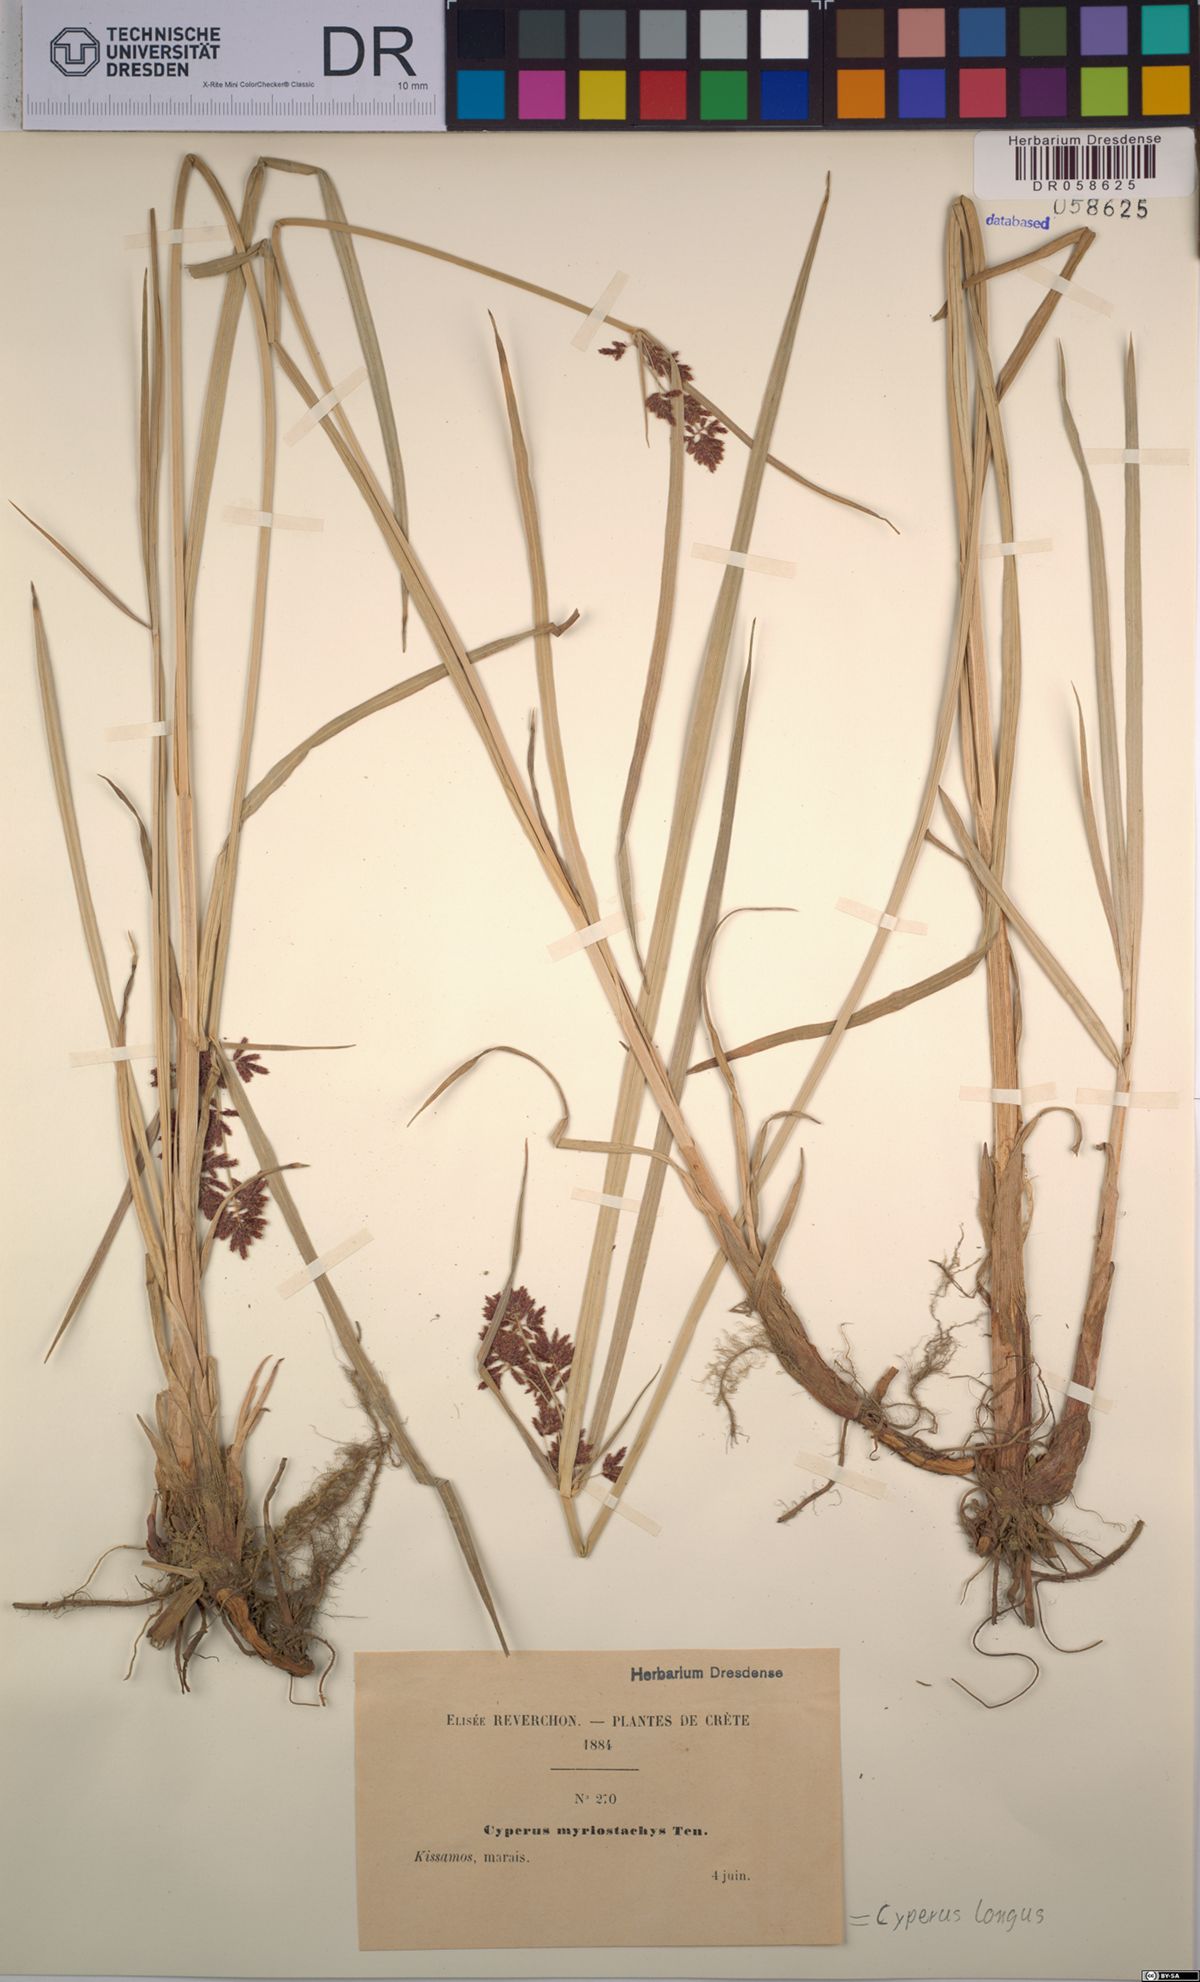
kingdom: Plantae
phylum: Tracheophyta
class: Liliopsida
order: Poales
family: Cyperaceae
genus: Cyperus
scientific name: Cyperus longus
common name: Galingale
